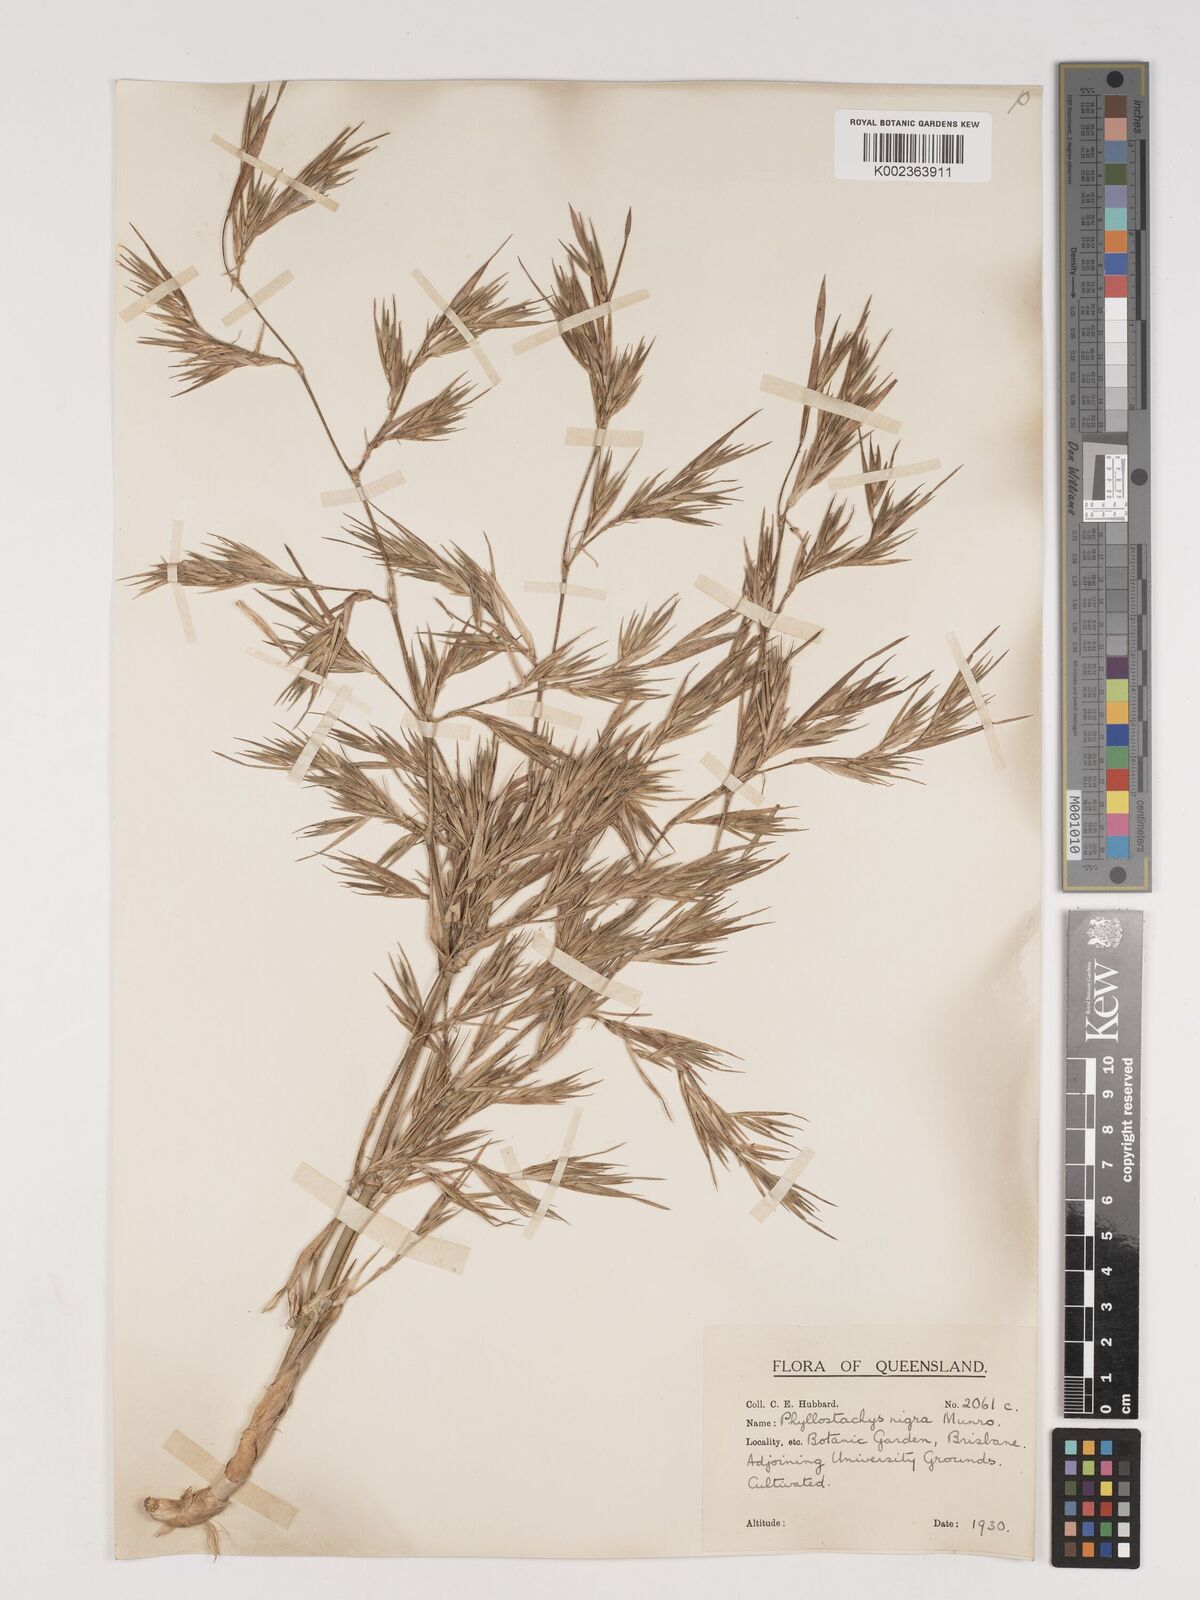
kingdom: Plantae
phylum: Tracheophyta
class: Liliopsida
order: Poales
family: Poaceae
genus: Phyllostachys
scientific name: Phyllostachys nigra
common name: Black bamboo
